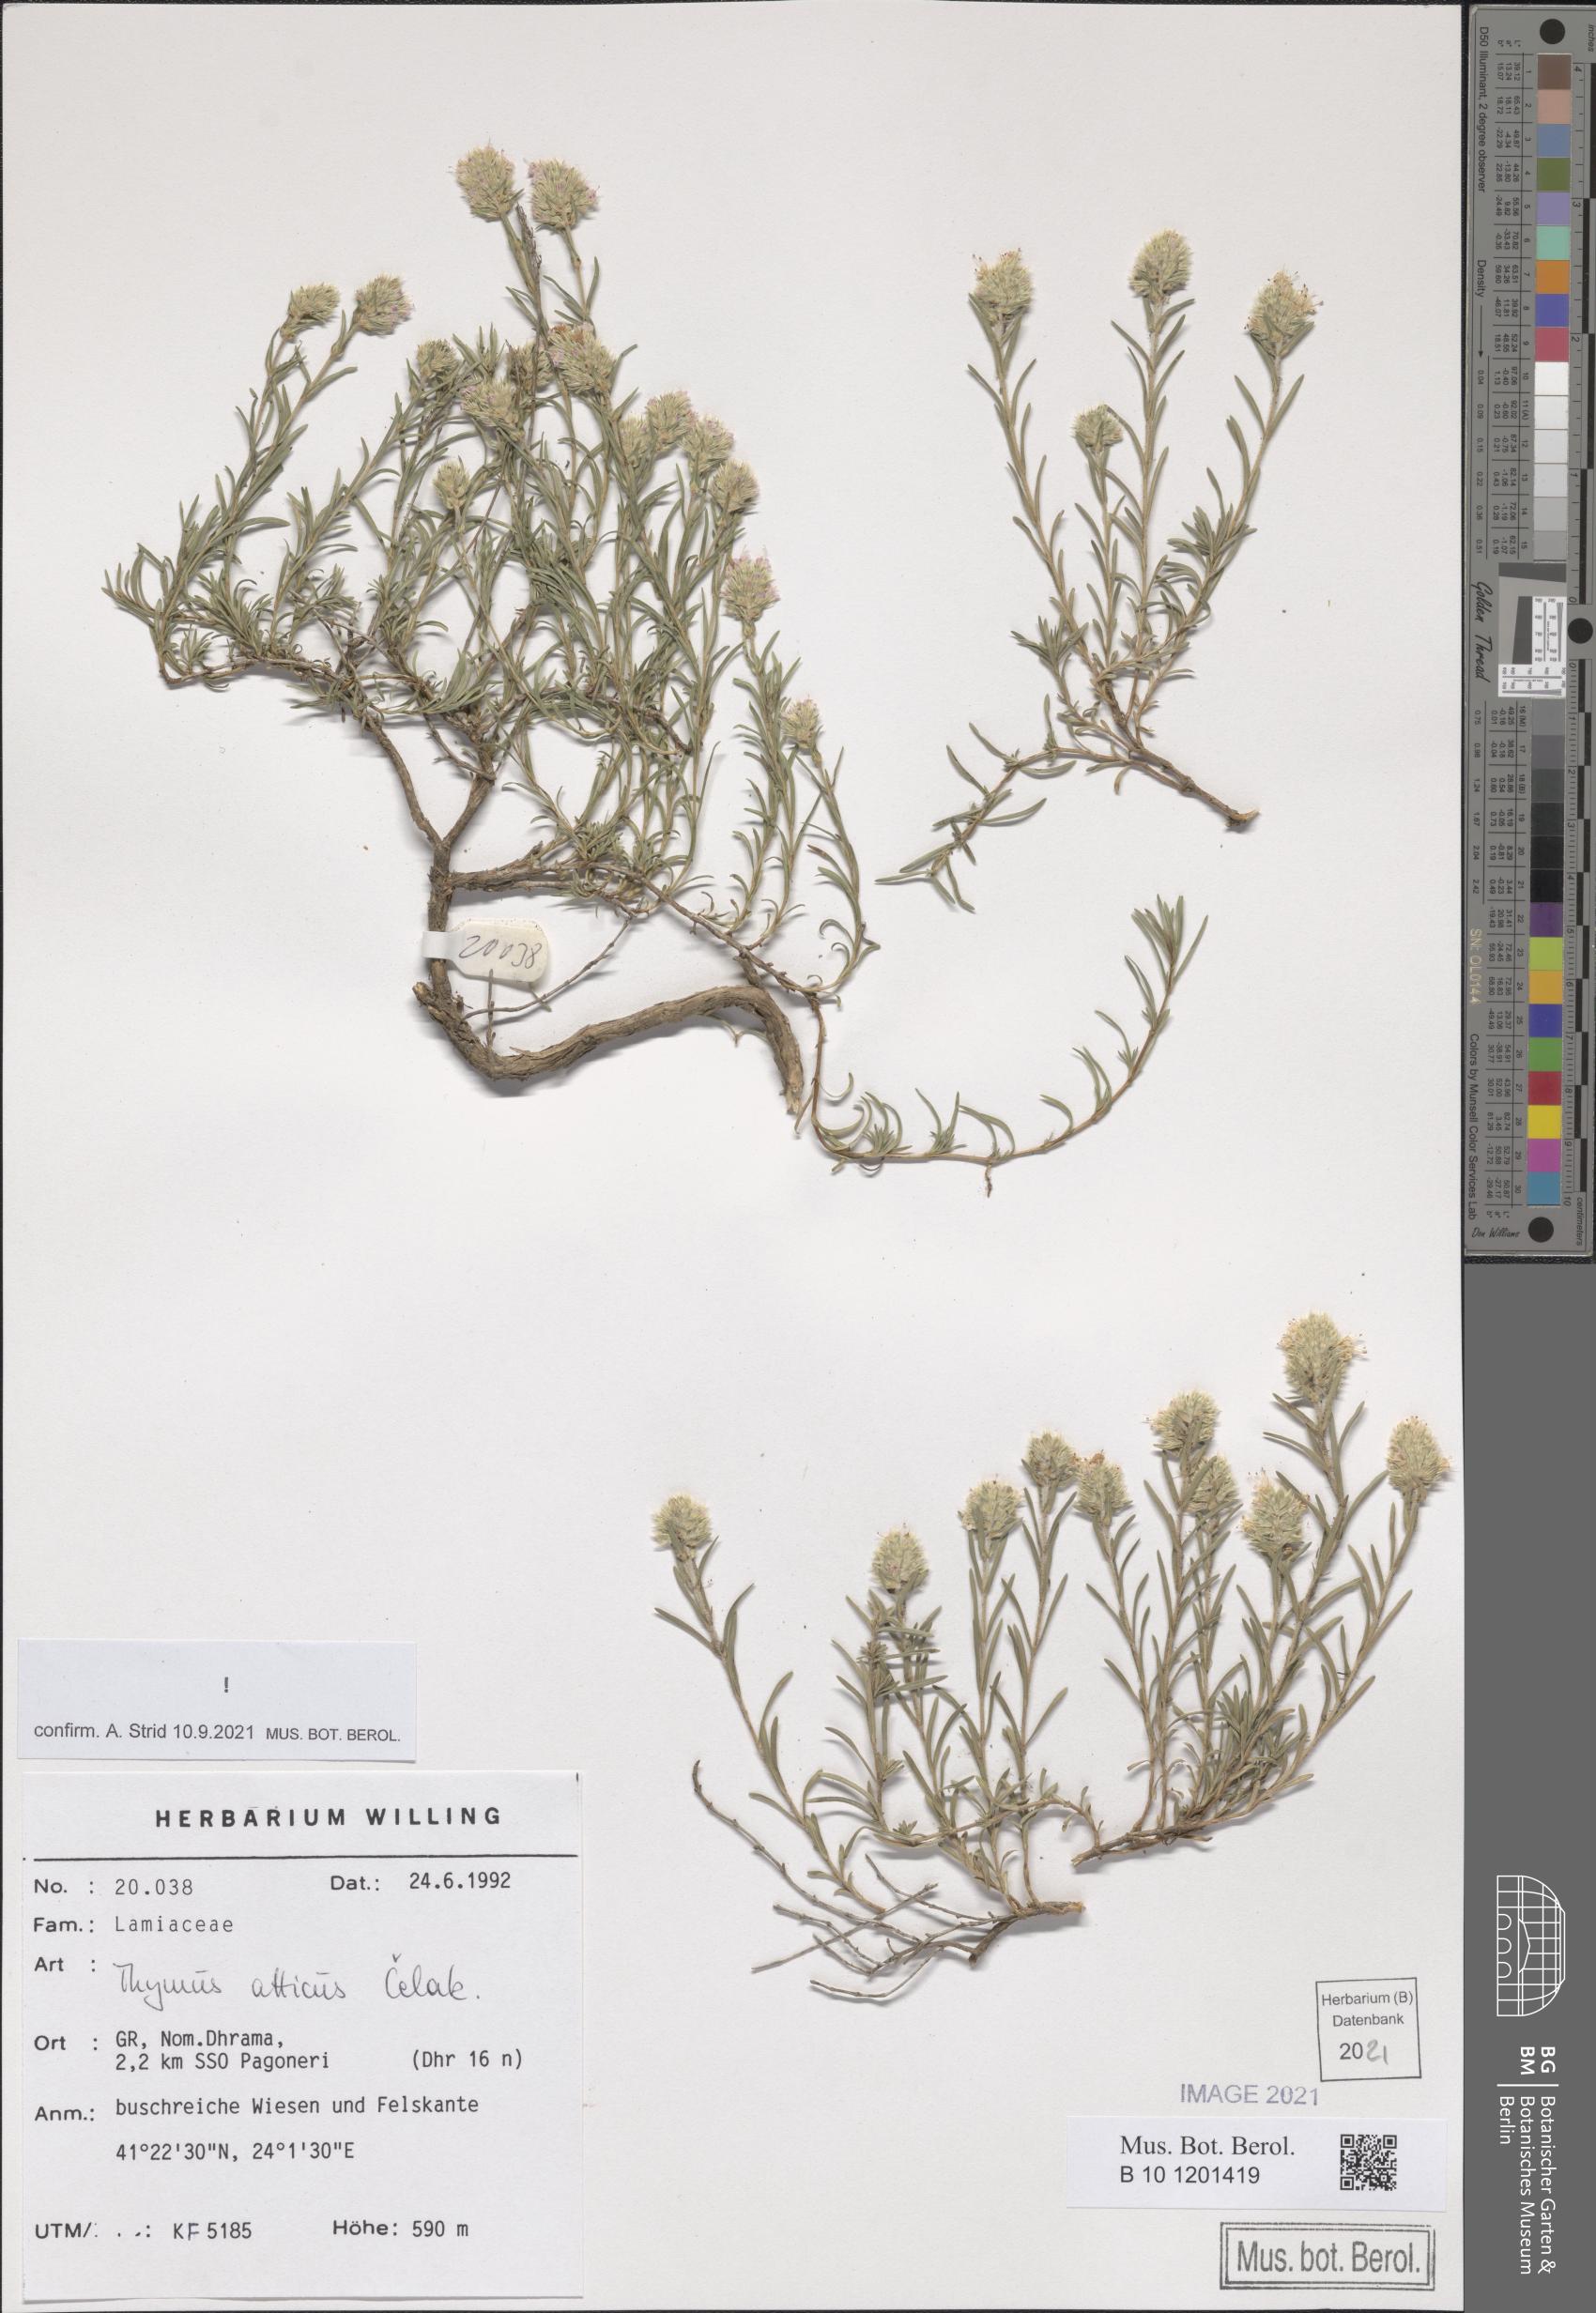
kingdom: Plantae
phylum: Tracheophyta
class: Magnoliopsida
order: Lamiales
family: Lamiaceae
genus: Thymus
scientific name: Thymus atticus
